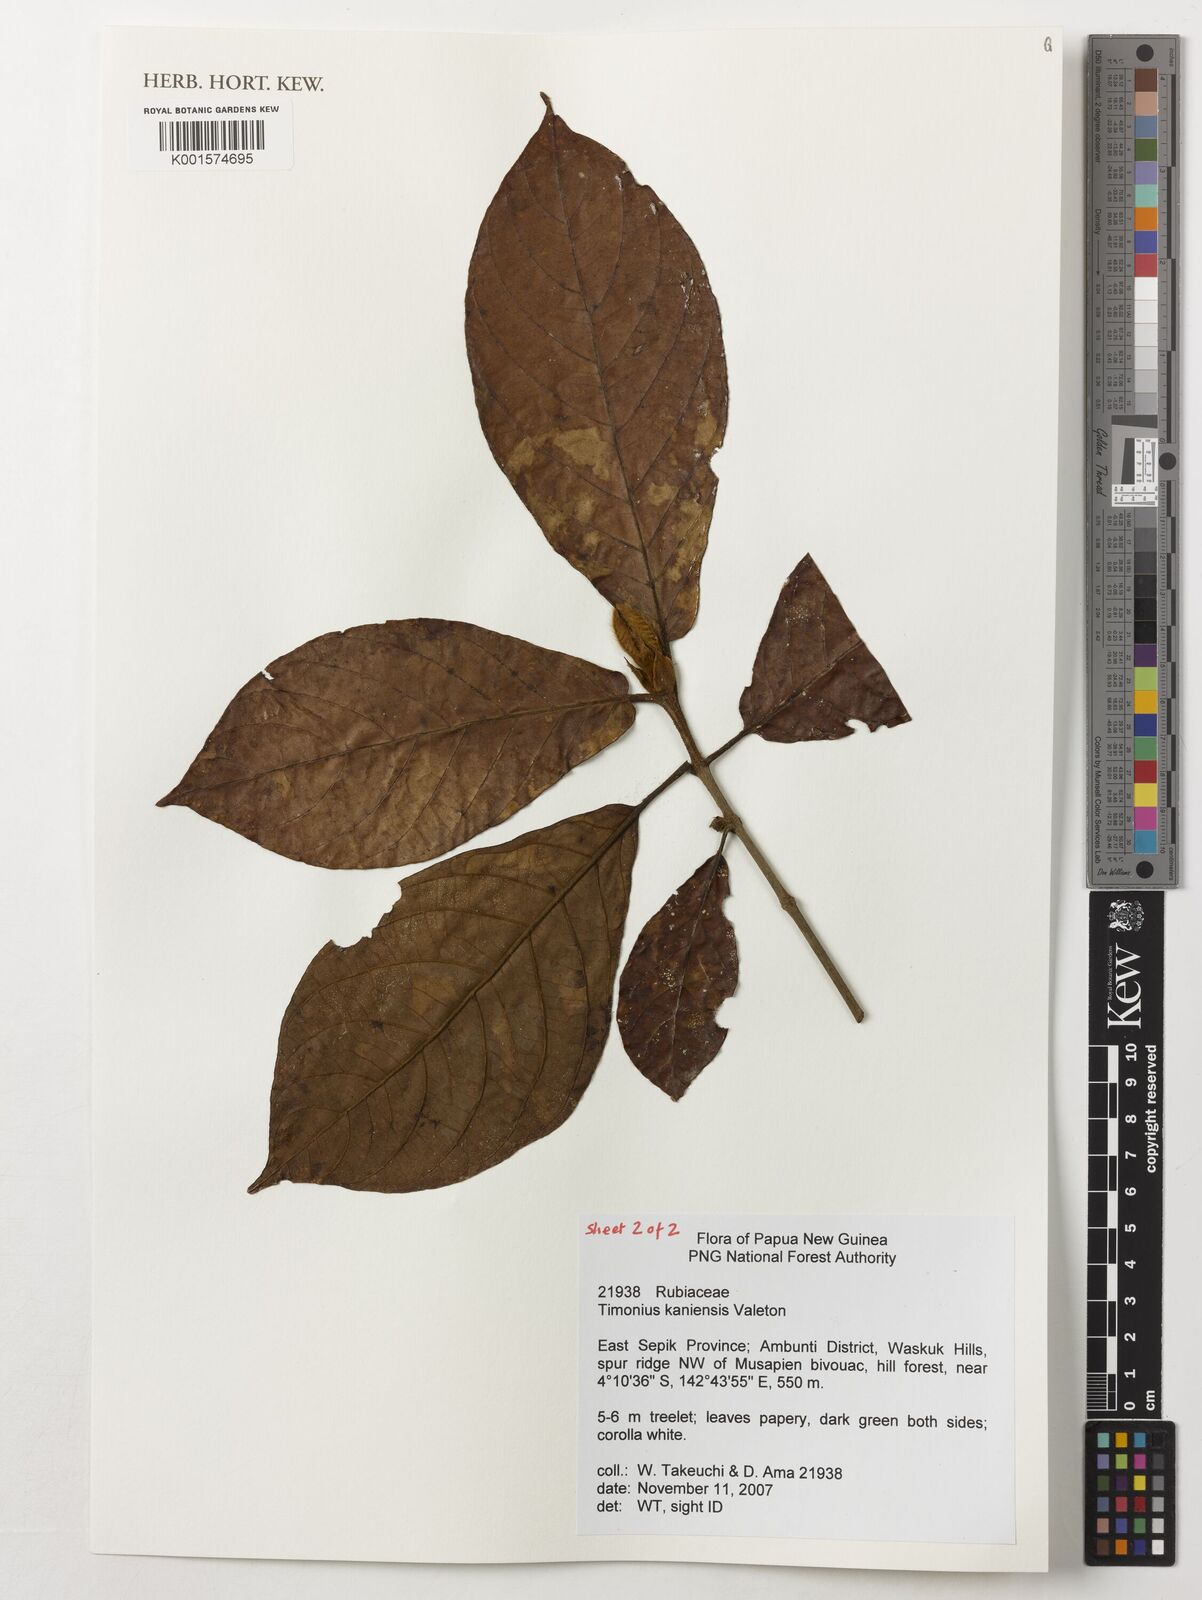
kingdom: Plantae
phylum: Tracheophyta
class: Magnoliopsida
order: Gentianales
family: Rubiaceae
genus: Timonius
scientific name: Timonius kaniensis
